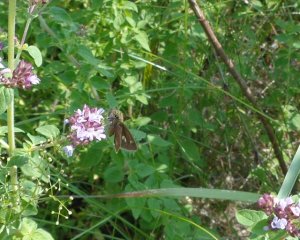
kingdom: Animalia
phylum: Arthropoda
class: Insecta
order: Lepidoptera
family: Hesperiidae
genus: Polites
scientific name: Polites egeremet
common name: Northern Broken-Dash
